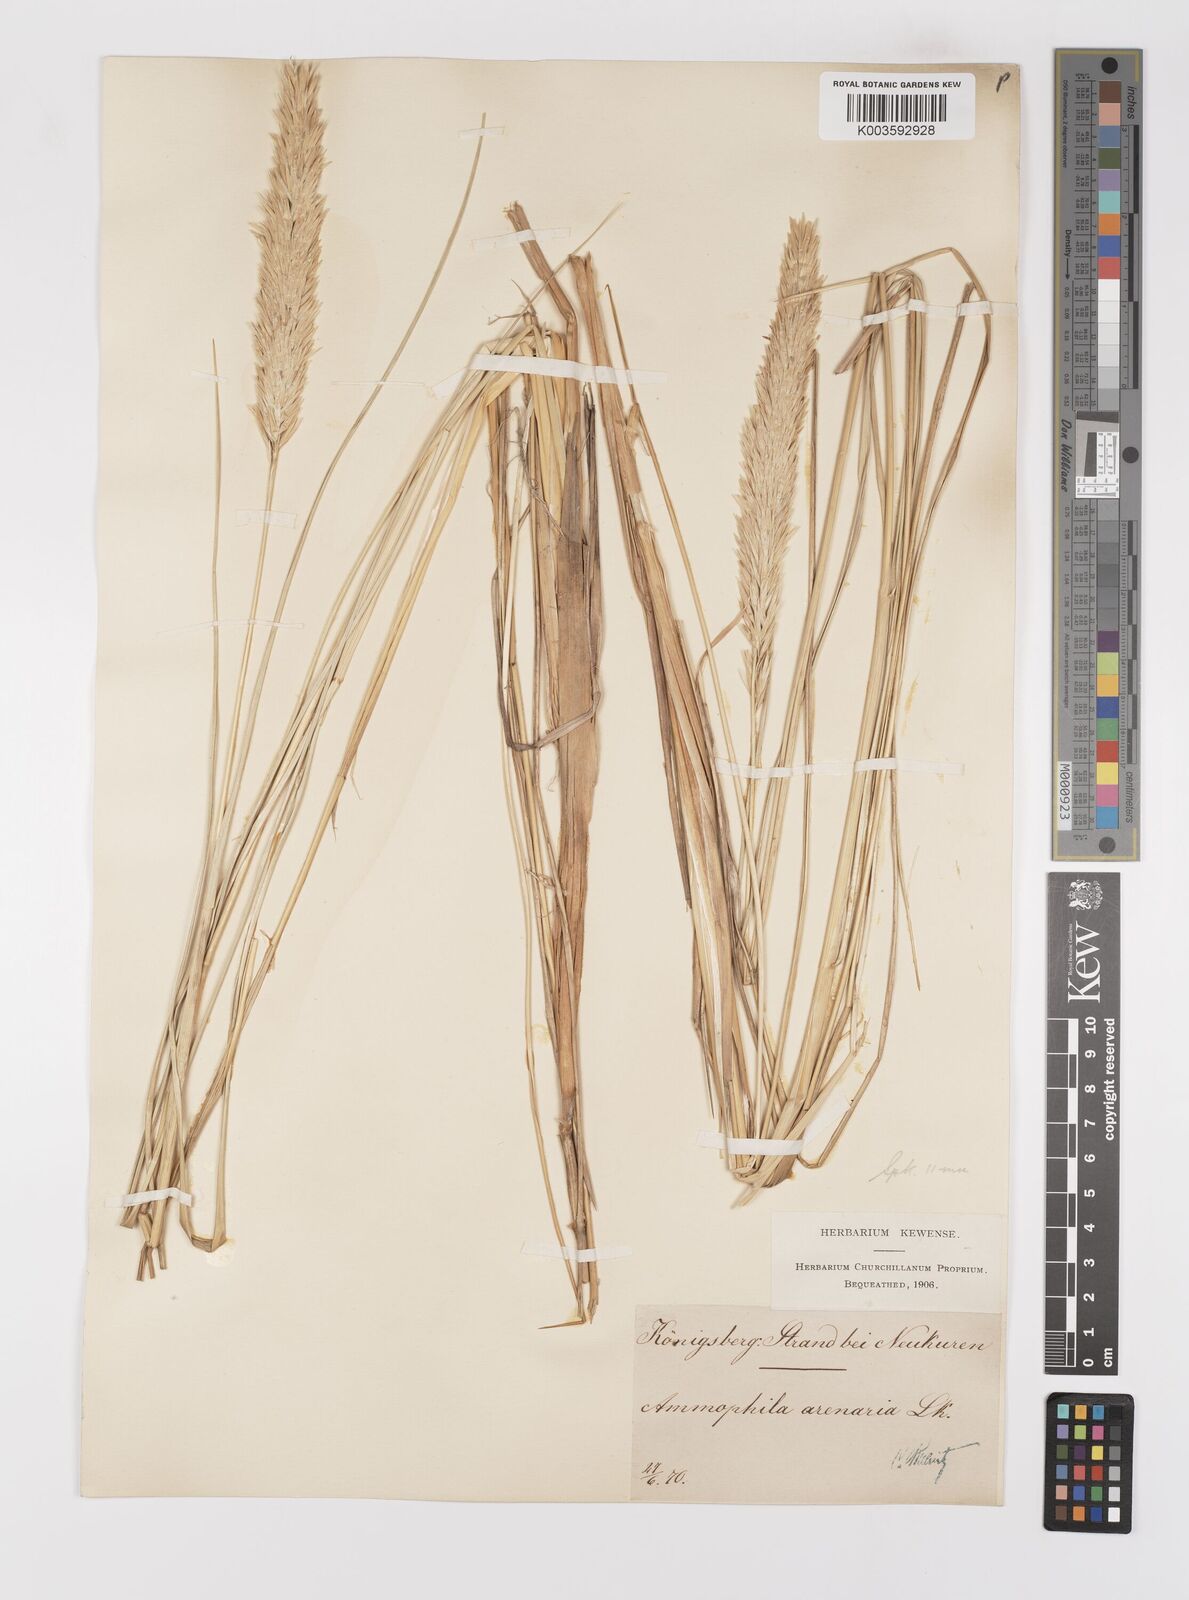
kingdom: Plantae
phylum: Tracheophyta
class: Liliopsida
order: Poales
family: Poaceae
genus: Calamagrostis
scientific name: Calamagrostis arenaria
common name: European beachgrass
